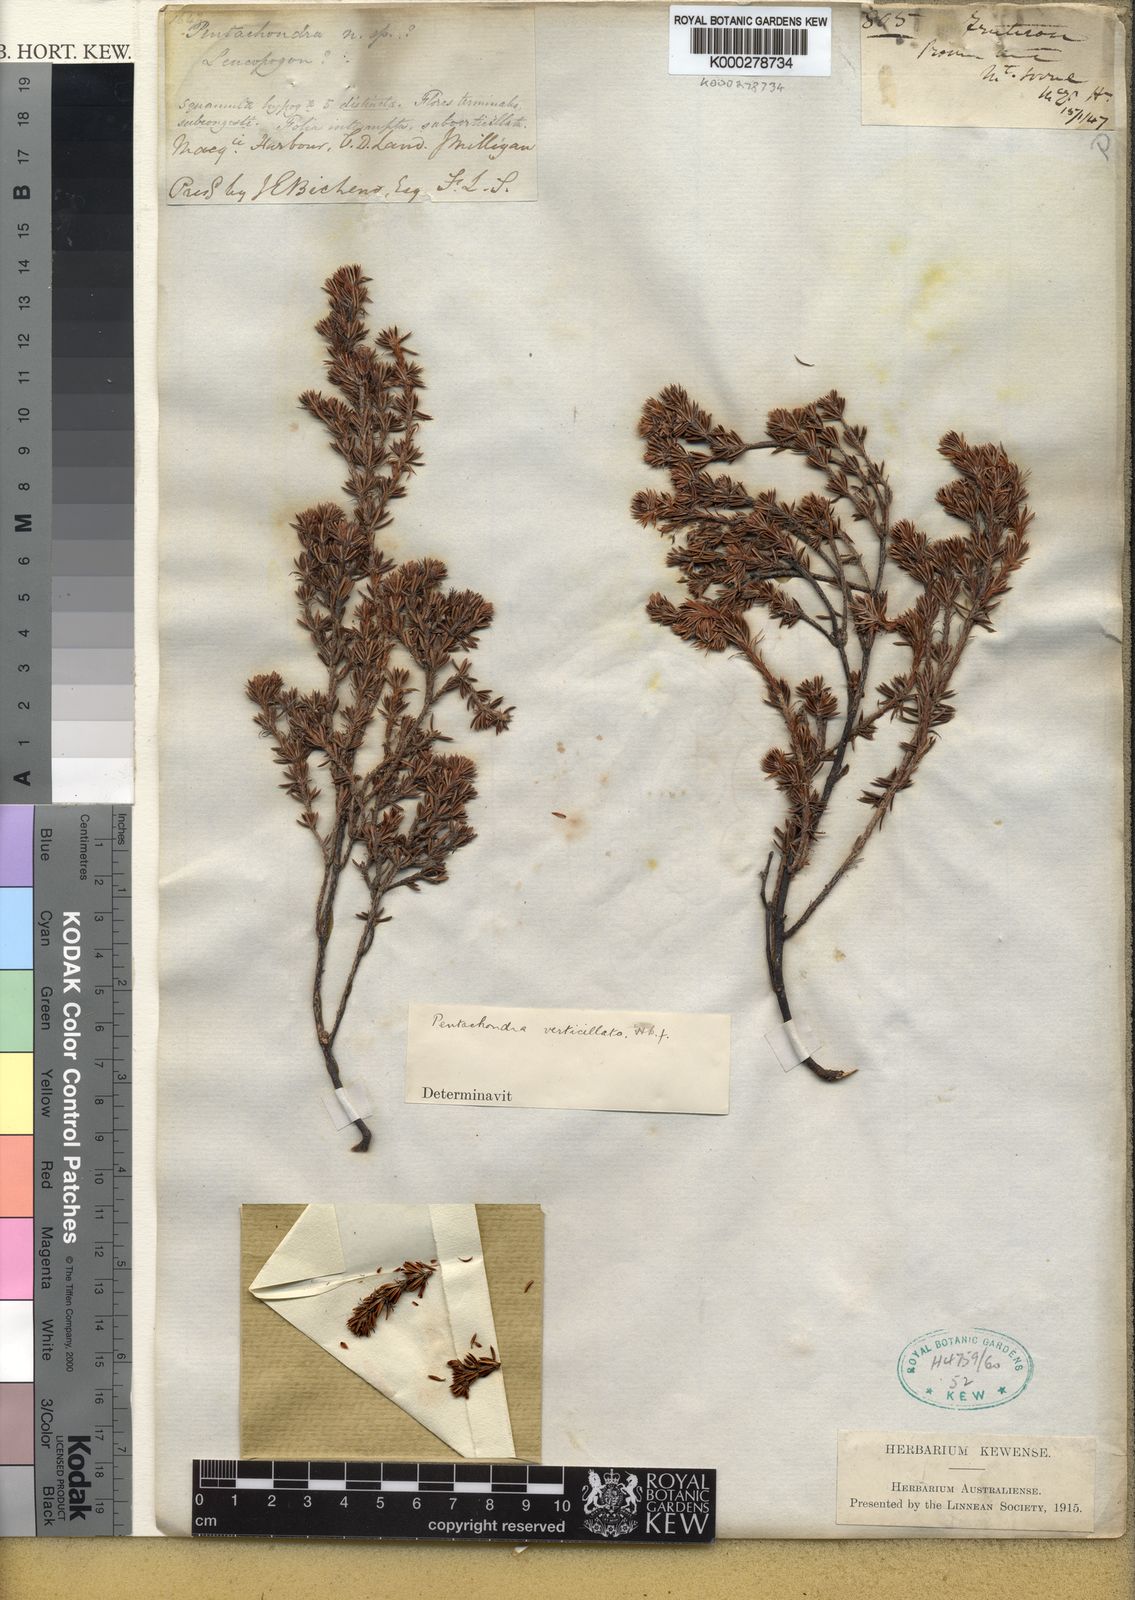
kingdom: Plantae
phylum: Tracheophyta
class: Magnoliopsida
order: Ericales
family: Ericaceae
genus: Pentachondra
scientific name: Pentachondra involucrata
